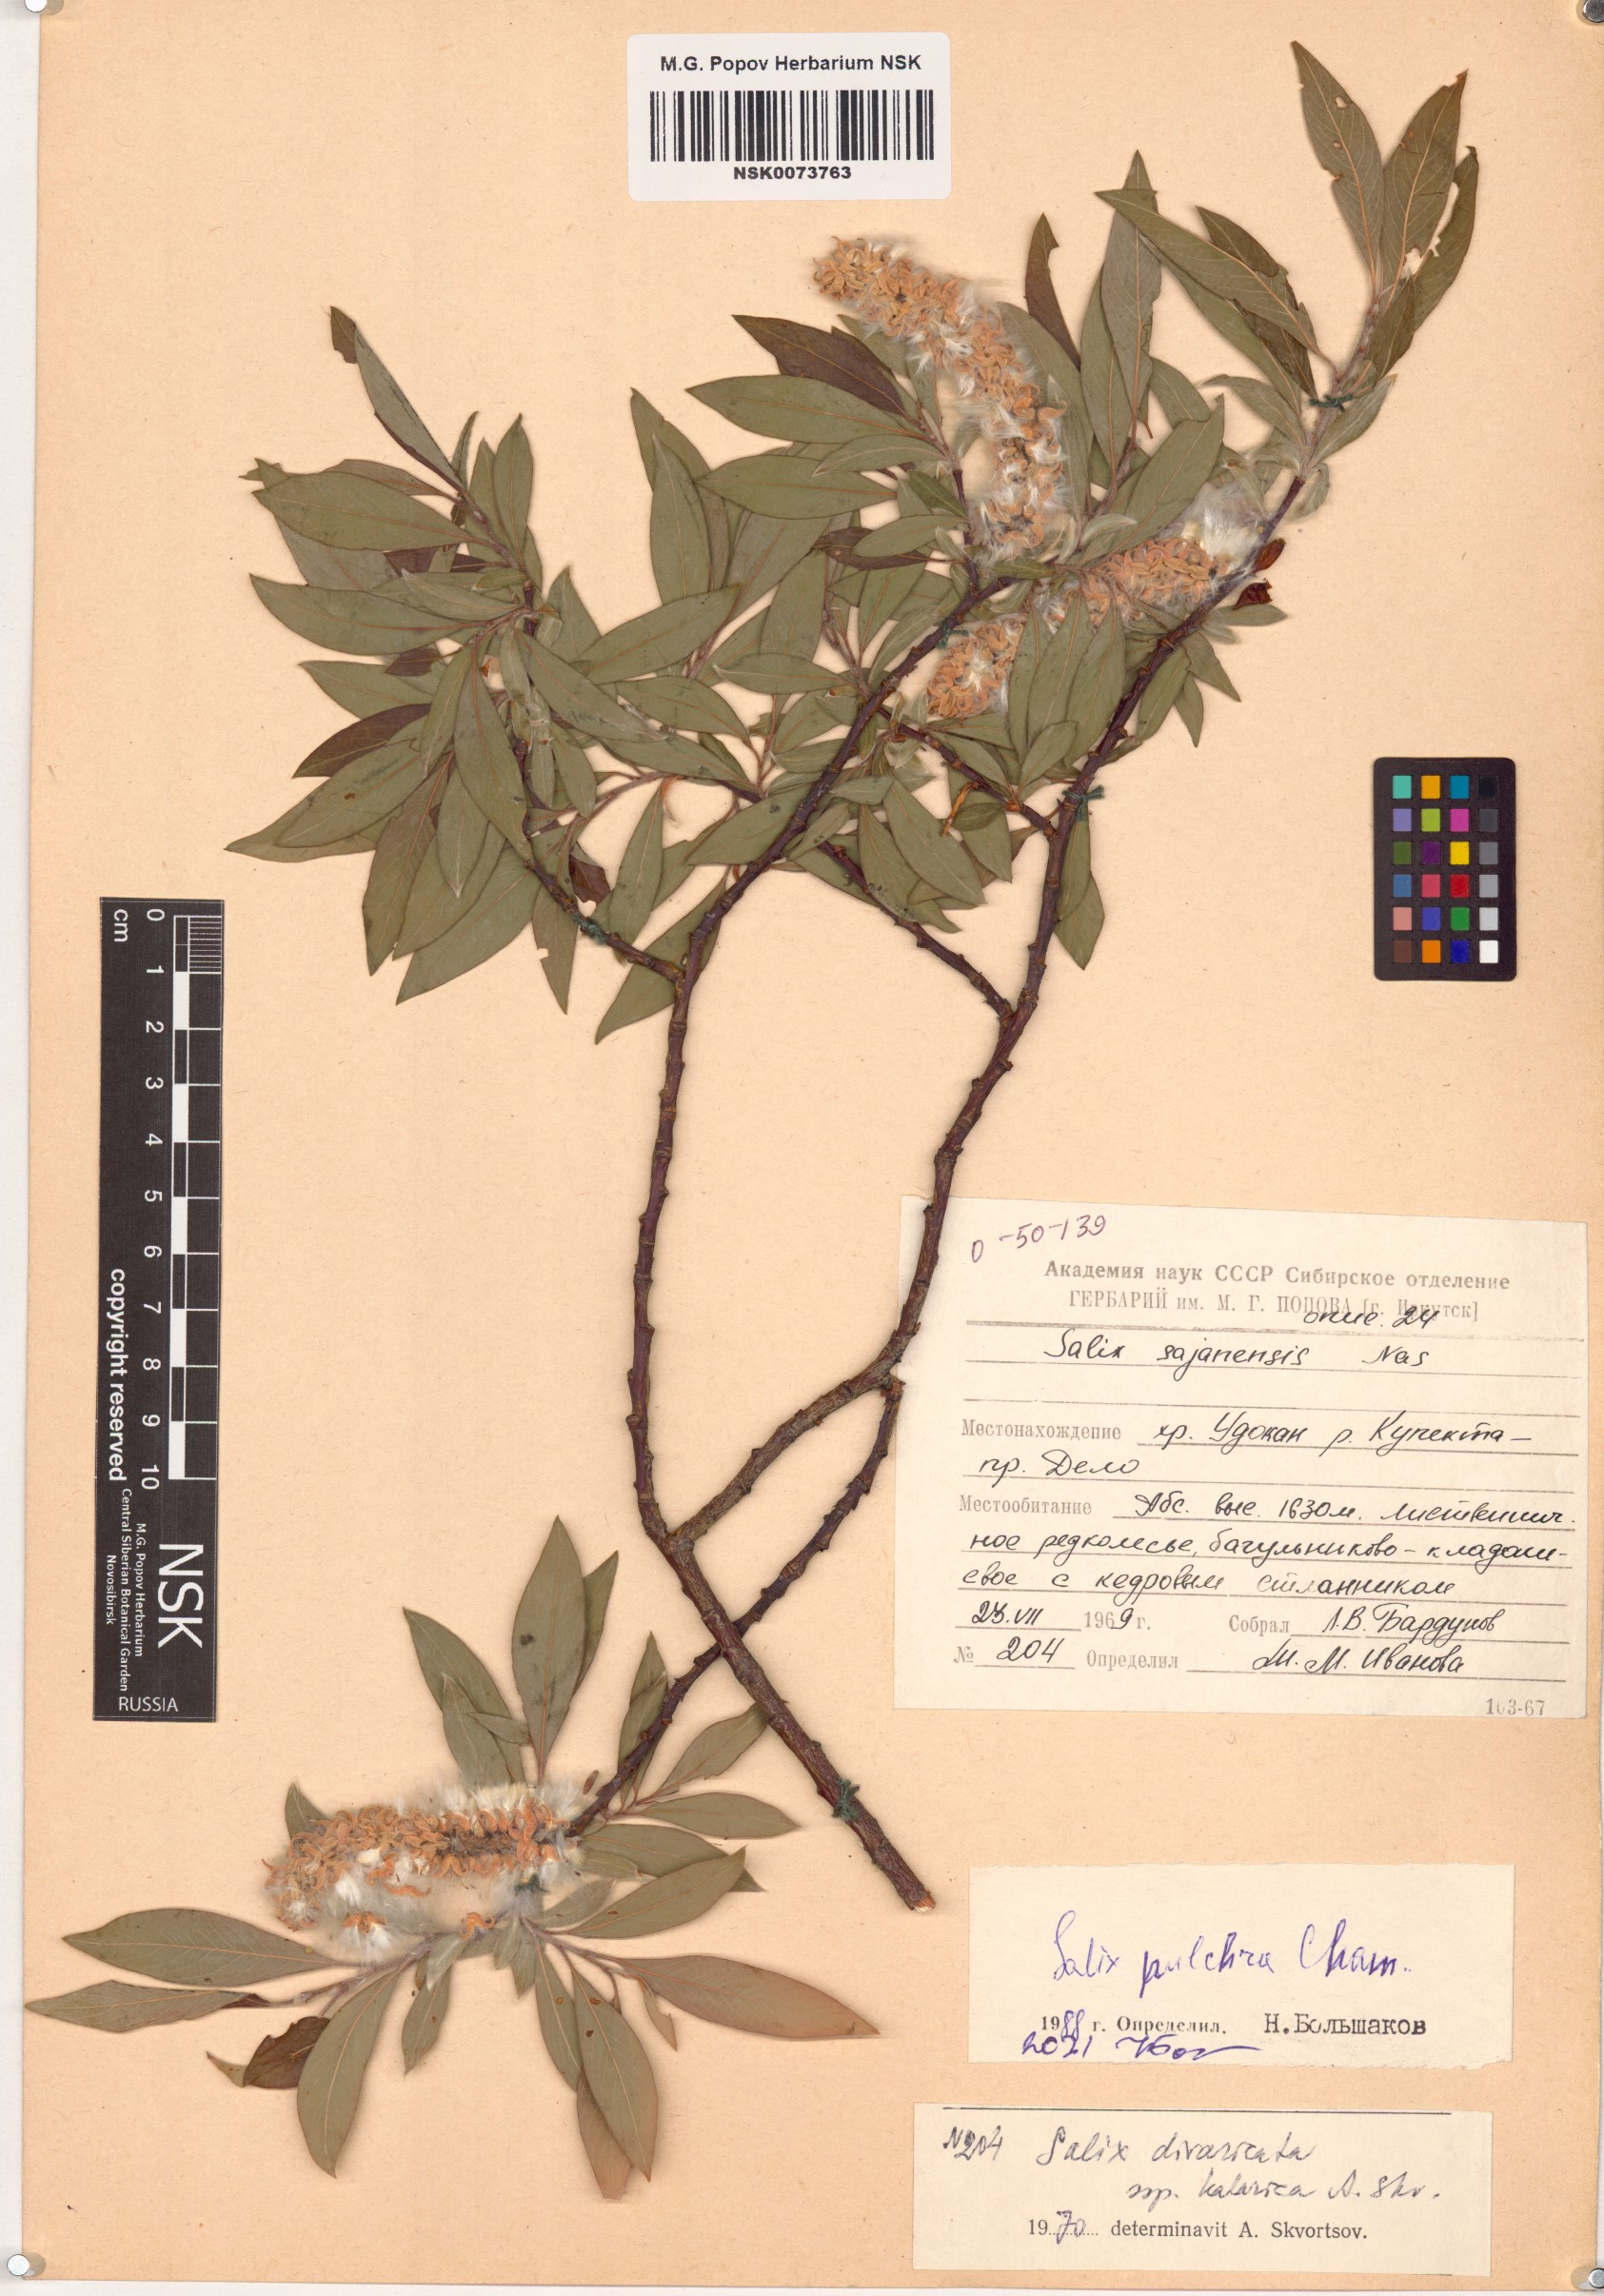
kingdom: Plantae
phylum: Tracheophyta
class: Magnoliopsida
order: Malpighiales
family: Salicaceae
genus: Salix
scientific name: Salix pulchra
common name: Diamond-leaved willow
